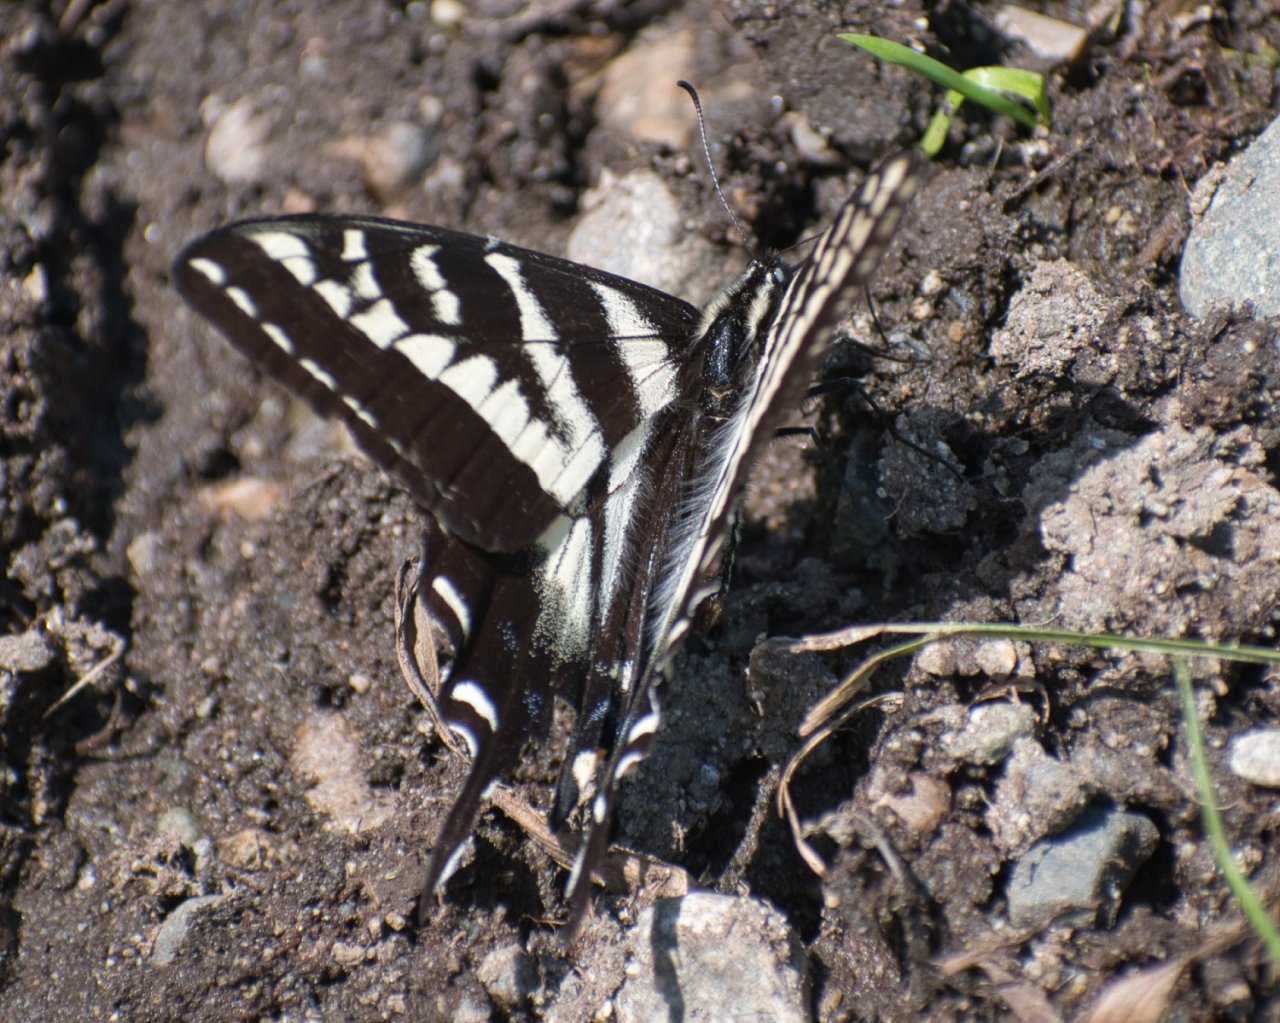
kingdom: Animalia
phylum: Arthropoda
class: Insecta
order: Lepidoptera
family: Papilionidae
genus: Pterourus
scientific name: Pterourus eurymedon
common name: Pale Swallowtail
